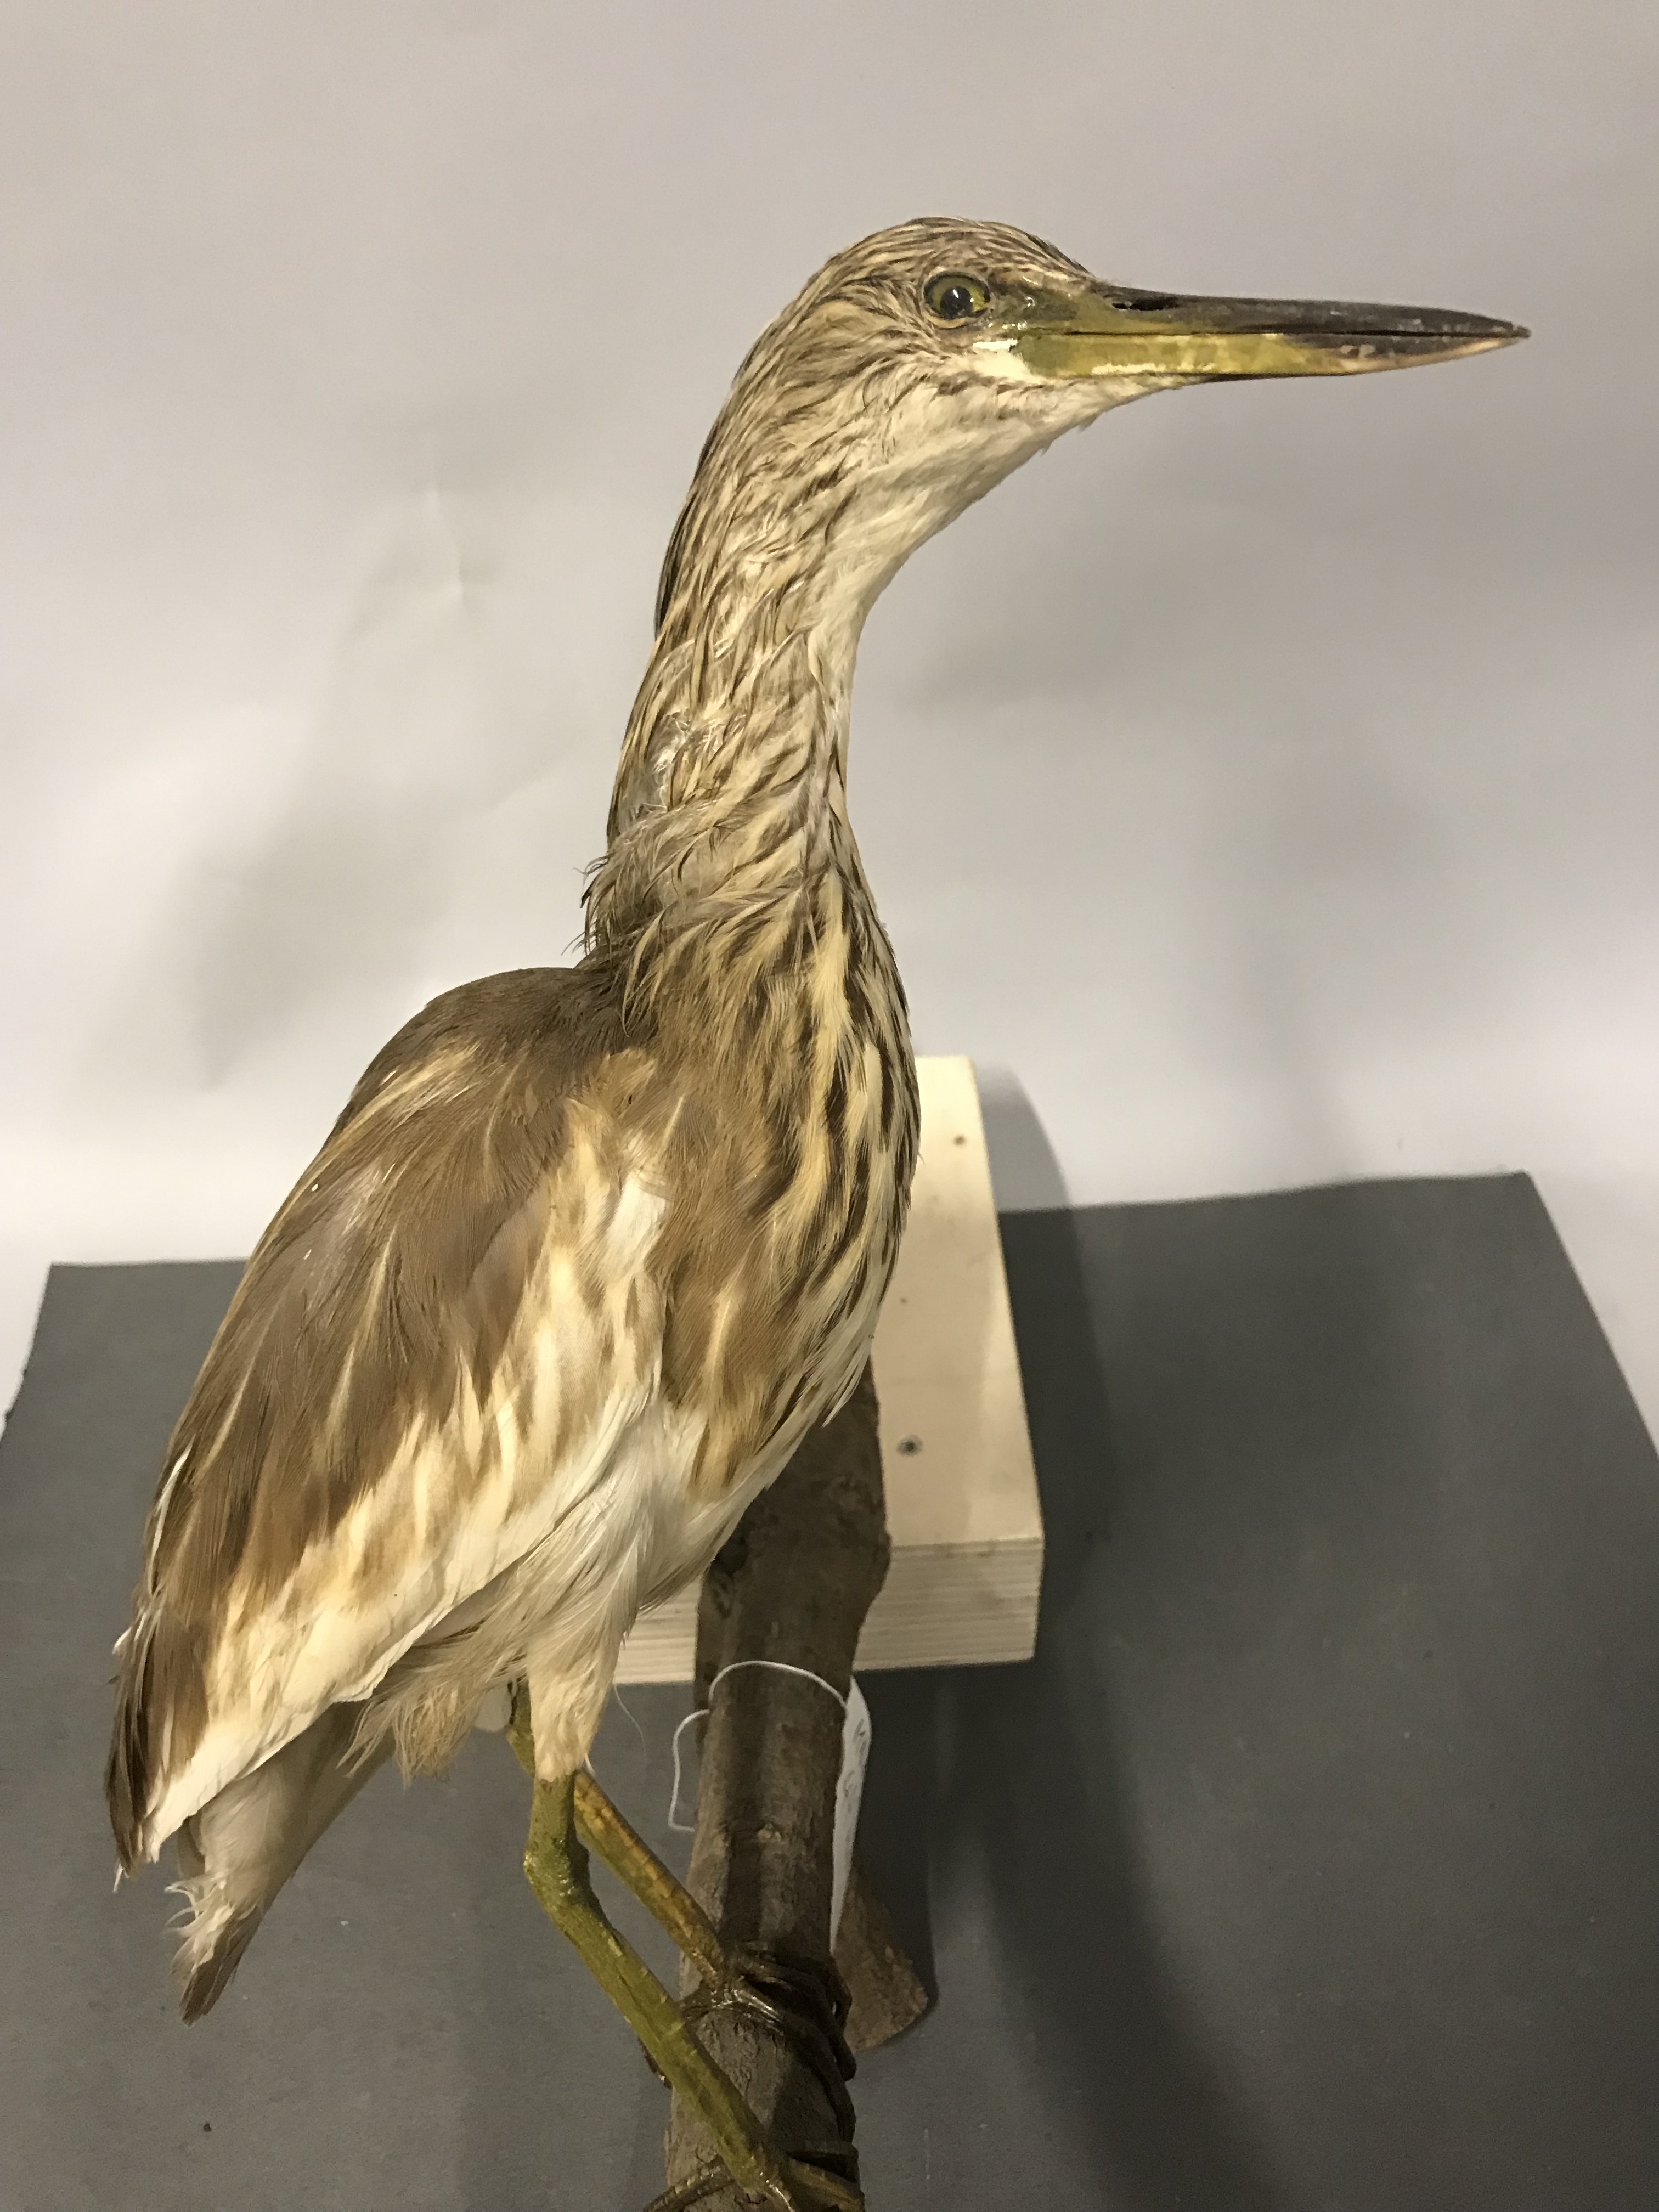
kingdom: Animalia
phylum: Chordata
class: Aves
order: Pelecaniformes
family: Ardeidae
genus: Ardeola
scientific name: Ardeola ralloides
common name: Squacco heron
